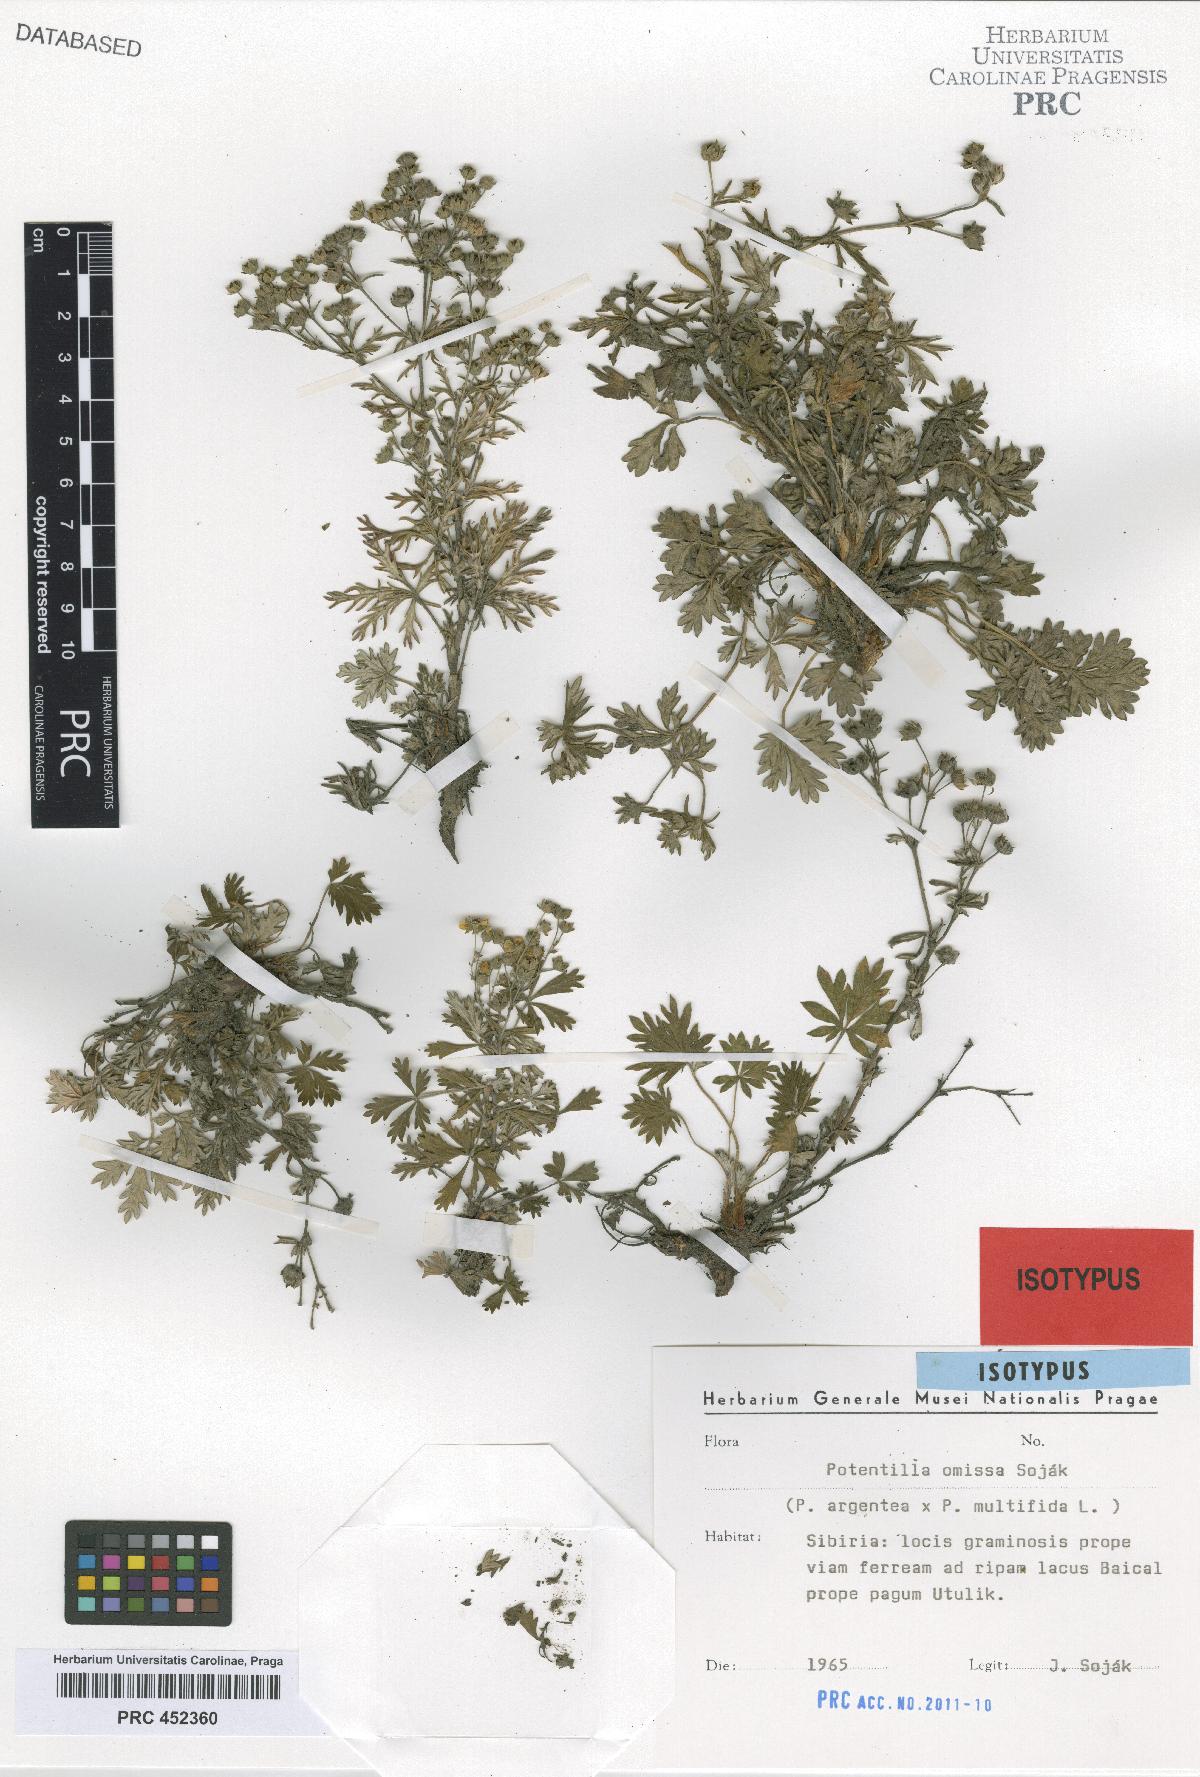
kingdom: Plantae
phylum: Tracheophyta
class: Magnoliopsida
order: Rosales
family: Rosaceae
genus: Potentilla
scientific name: Potentilla omissa
